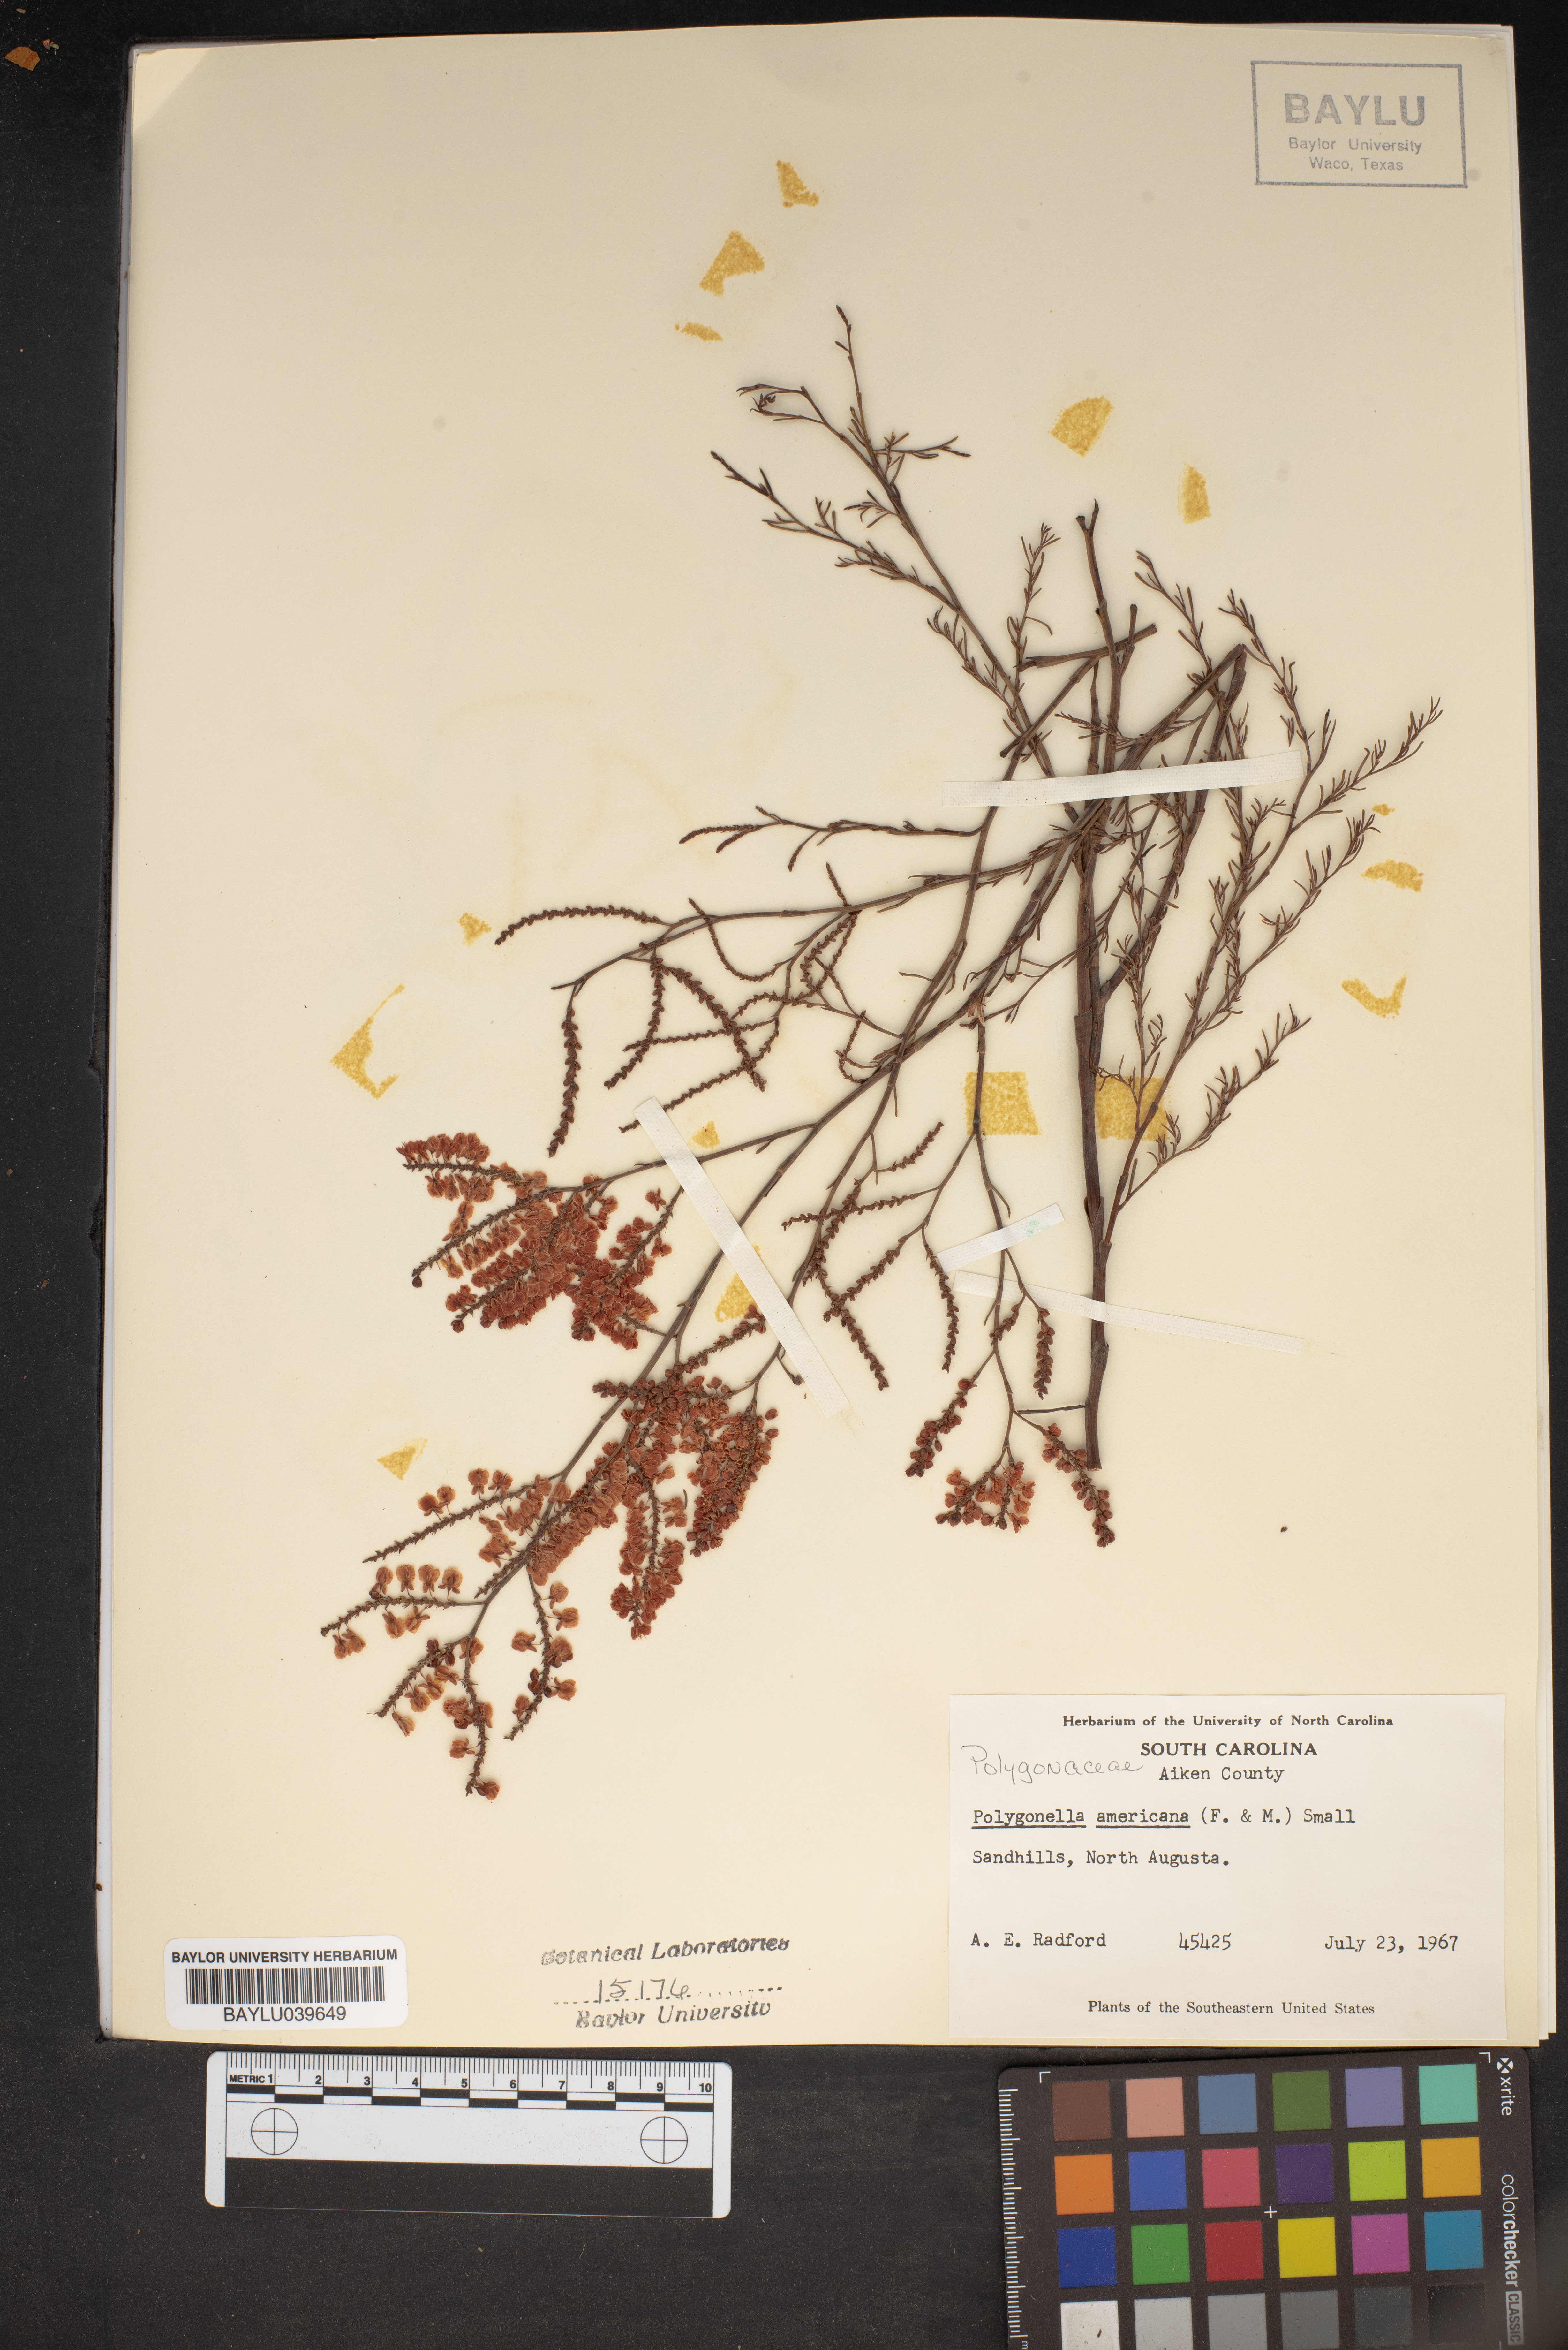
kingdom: Plantae
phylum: Tracheophyta
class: Magnoliopsida
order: Caryophyllales
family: Polygonaceae
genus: Polygonella
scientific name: Polygonella americana
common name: Southern jointweed
